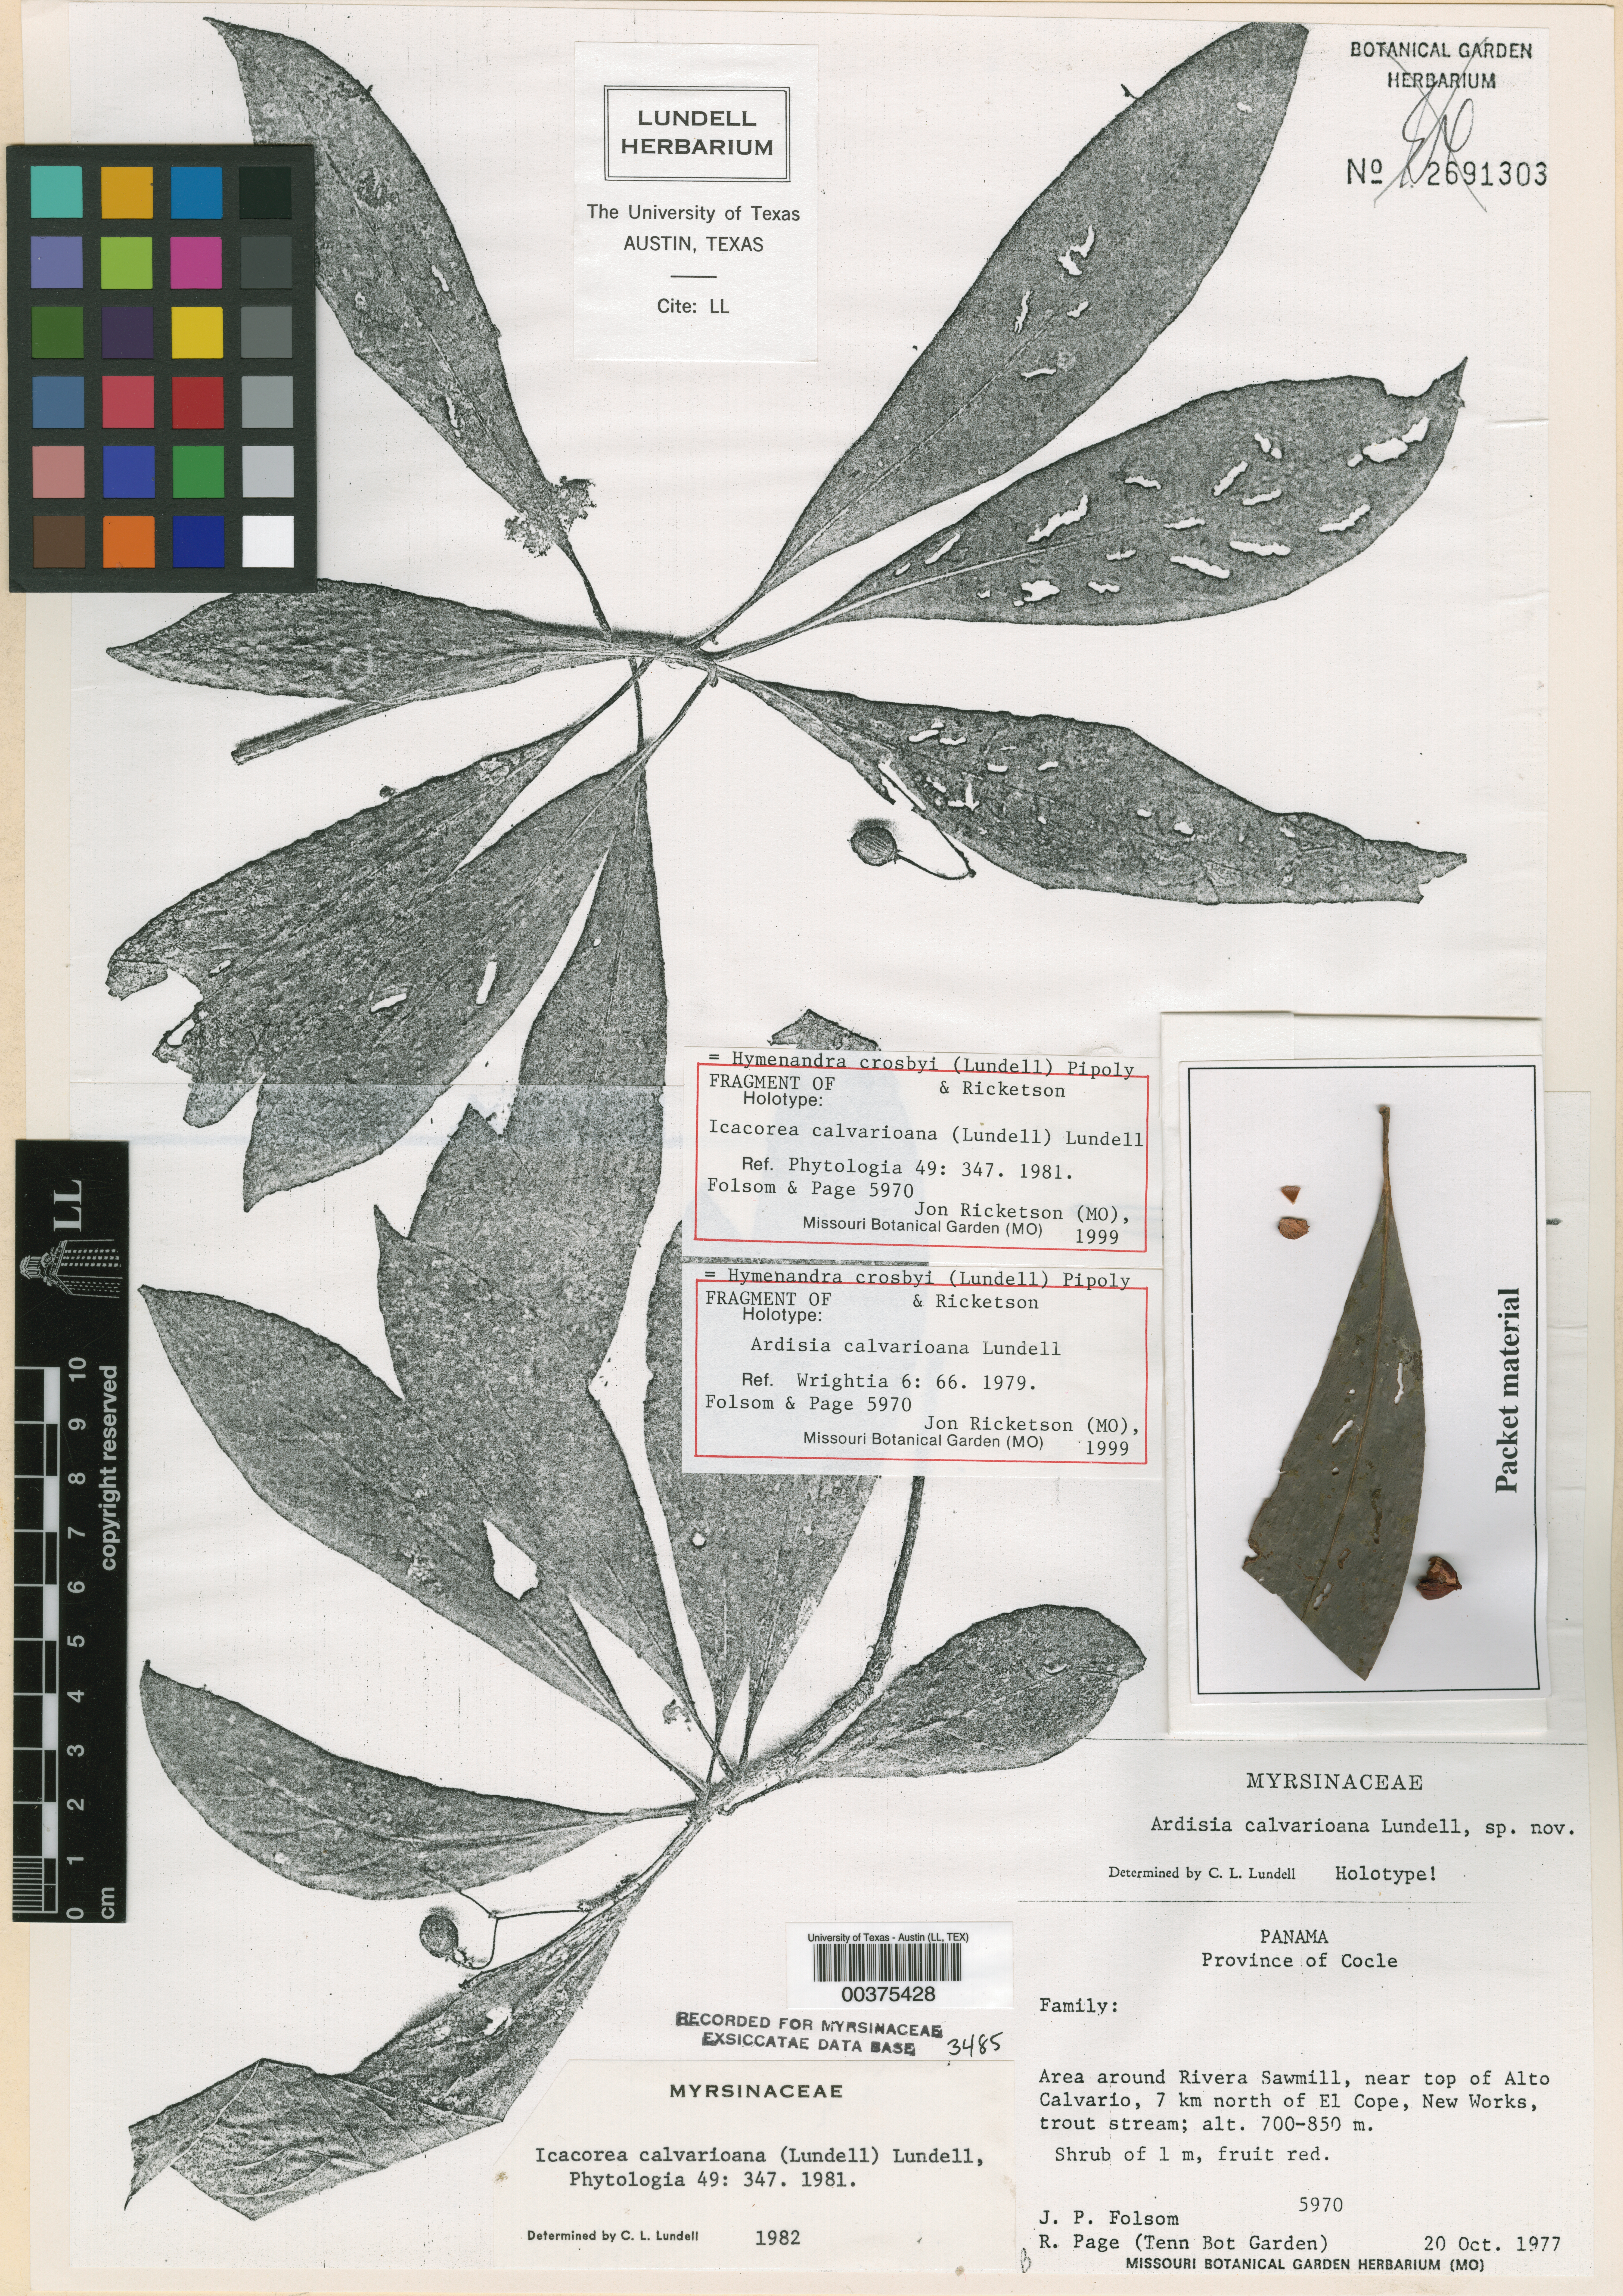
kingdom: Plantae
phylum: Tracheophyta
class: Magnoliopsida
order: Ericales
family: Primulaceae
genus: Hymenandra
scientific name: Hymenandra crosbyi
